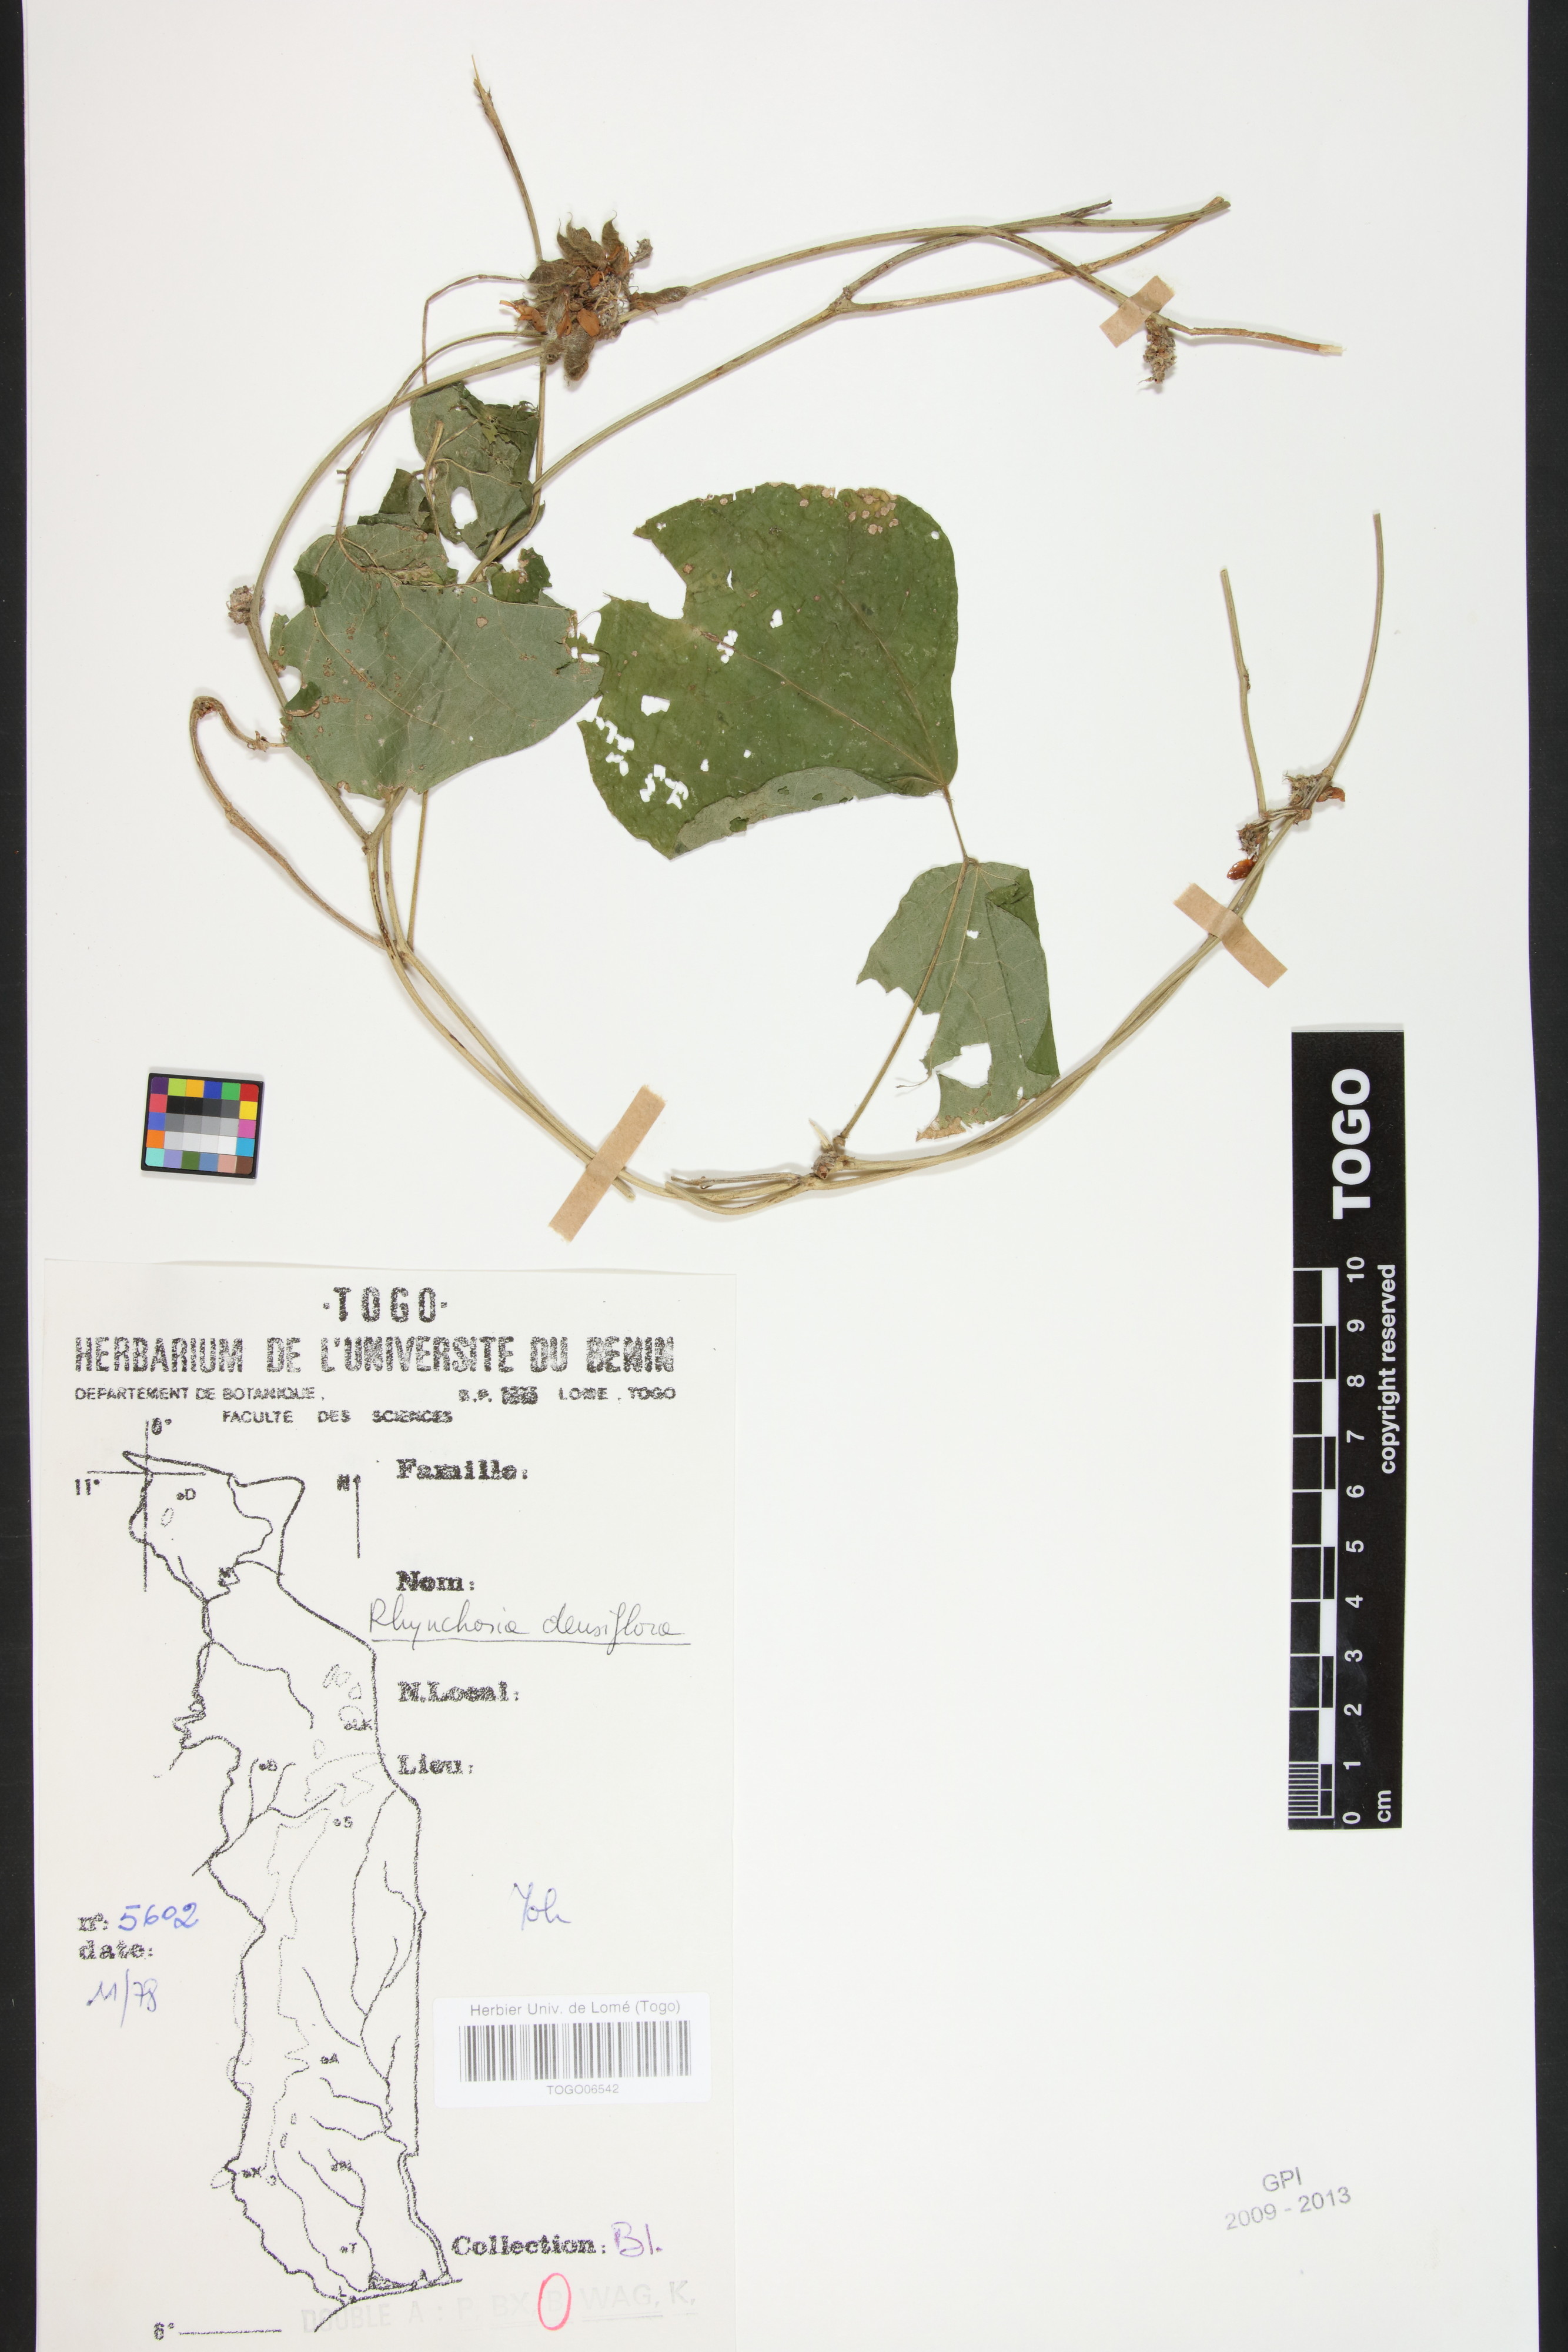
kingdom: Plantae
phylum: Tracheophyta
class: Magnoliopsida
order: Fabales
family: Fabaceae
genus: Rhynchosia
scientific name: Rhynchosia densiflora
